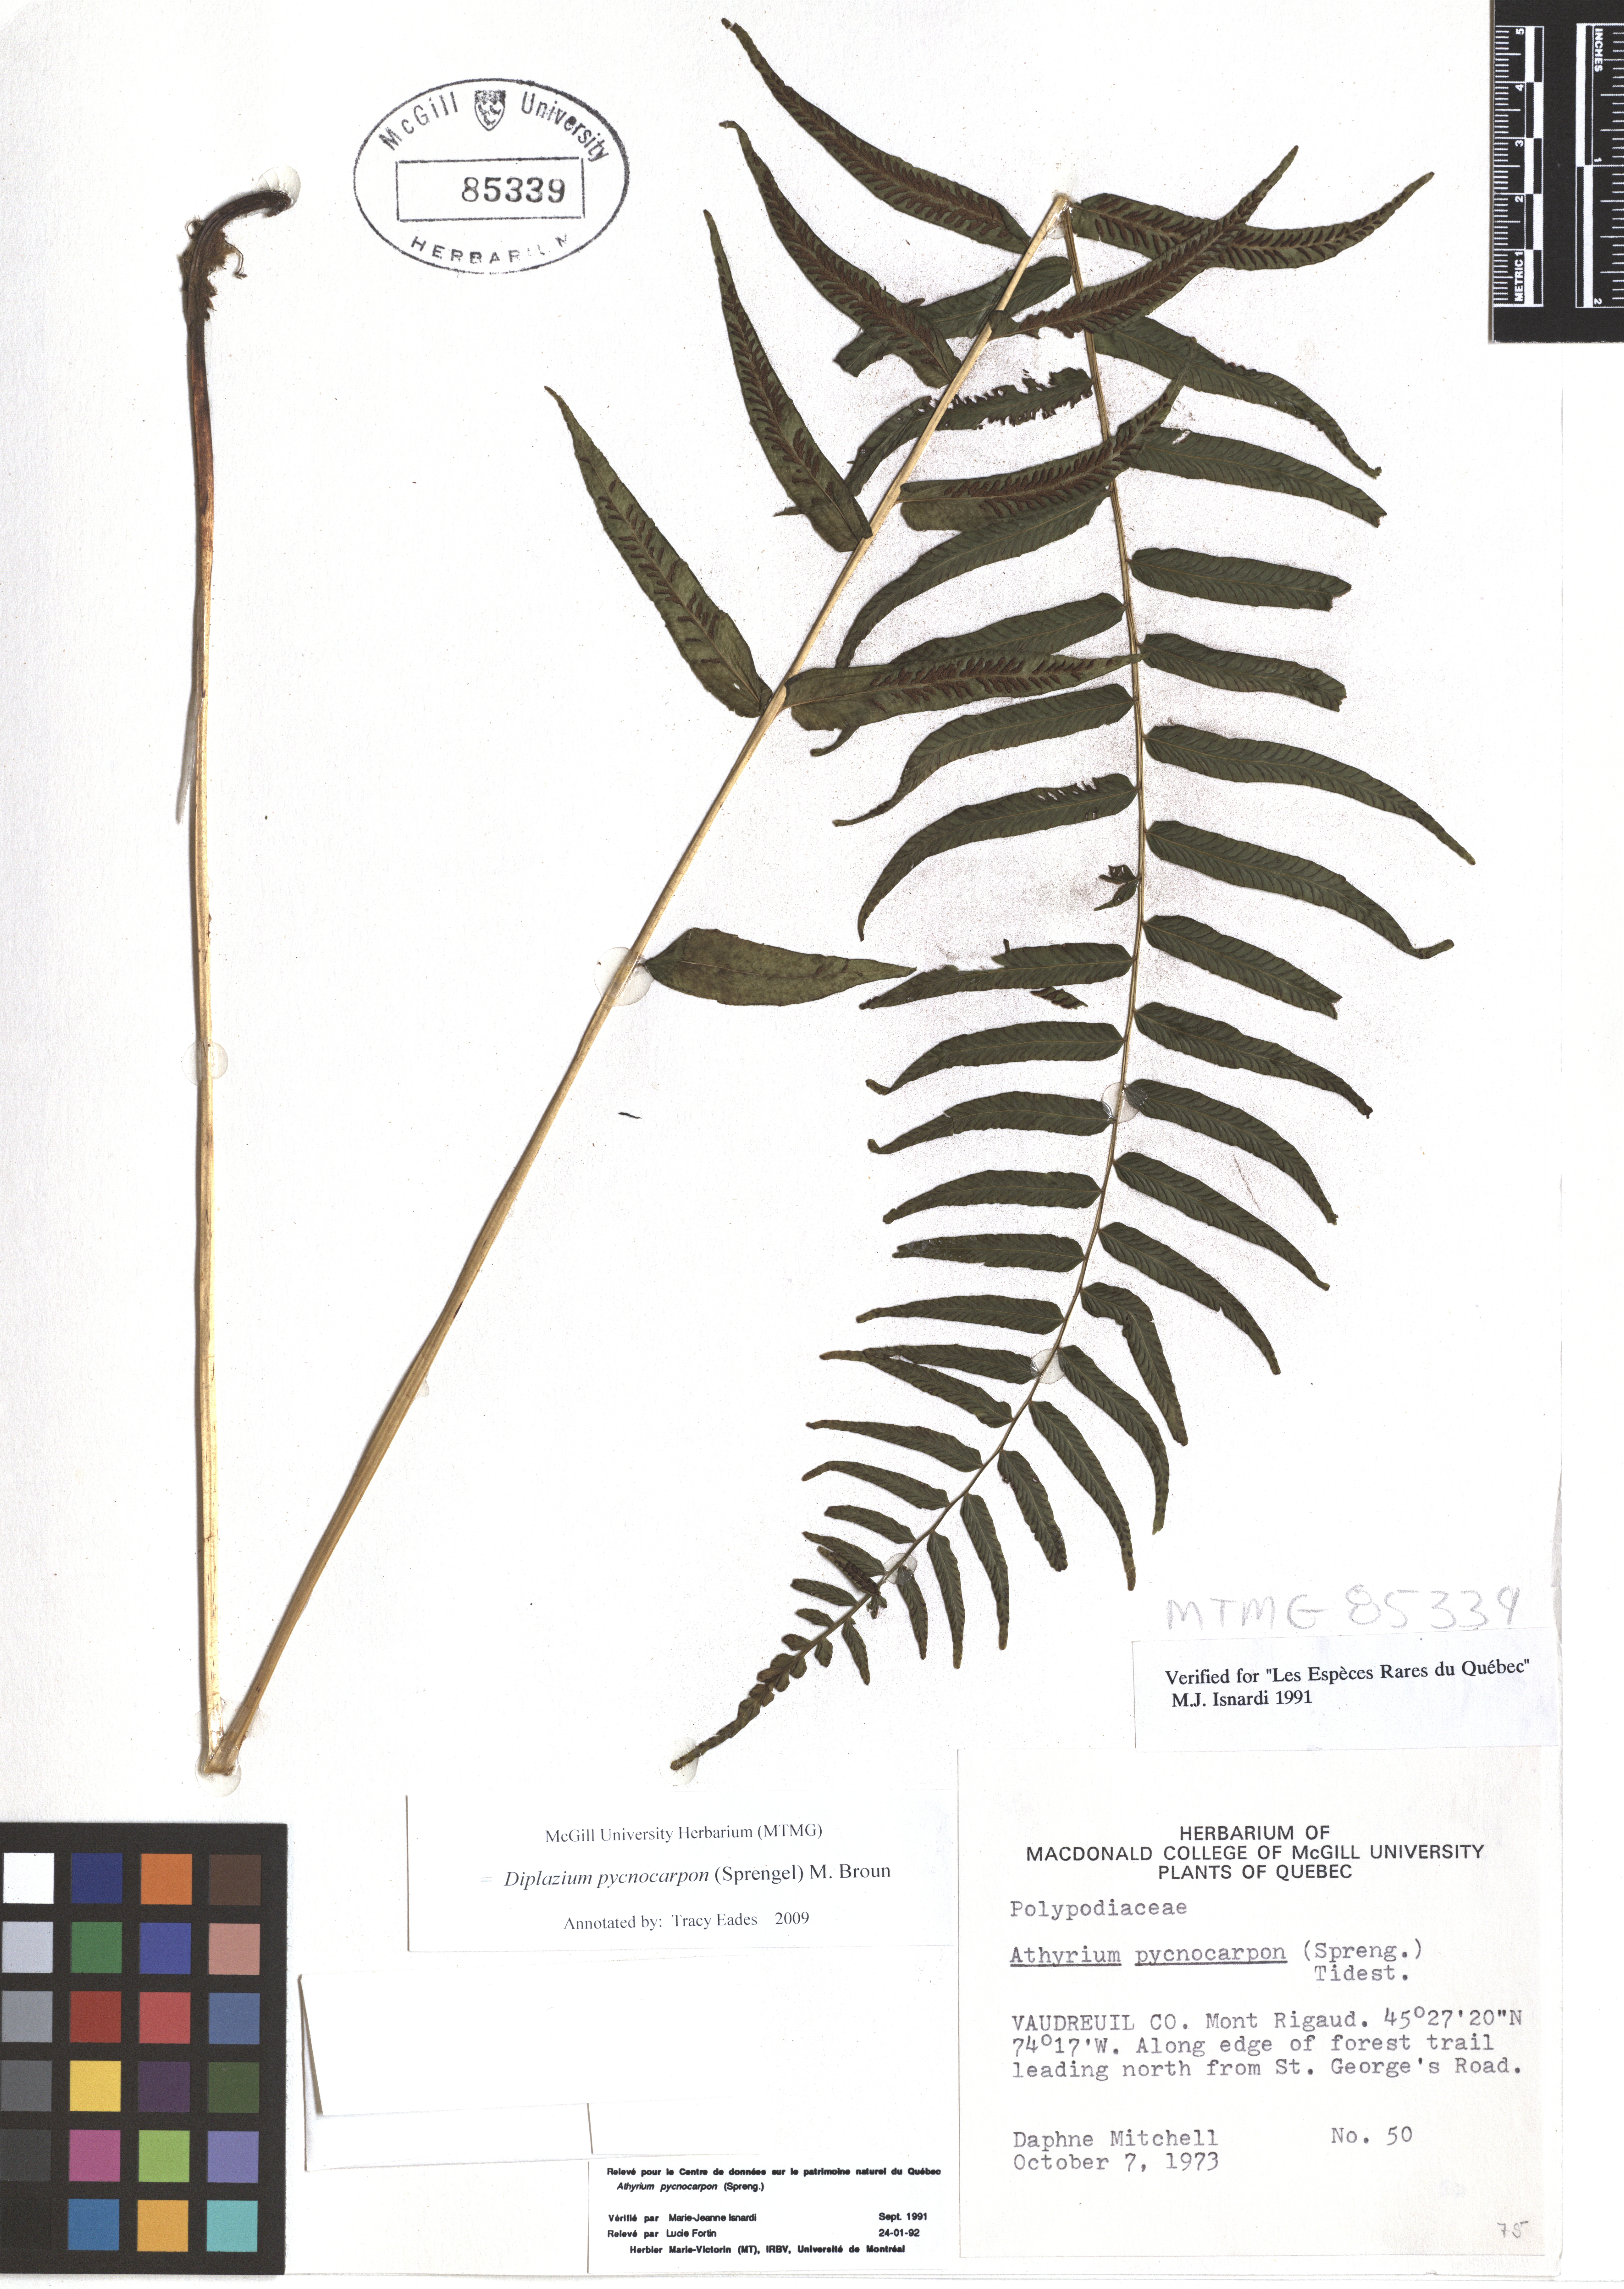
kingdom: Plantae
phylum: Tracheophyta
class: Polypodiopsida
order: Polypodiales
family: Diplaziopsidaceae
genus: Homalosorus
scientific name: Homalosorus pycnocarpos
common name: Glade fern
